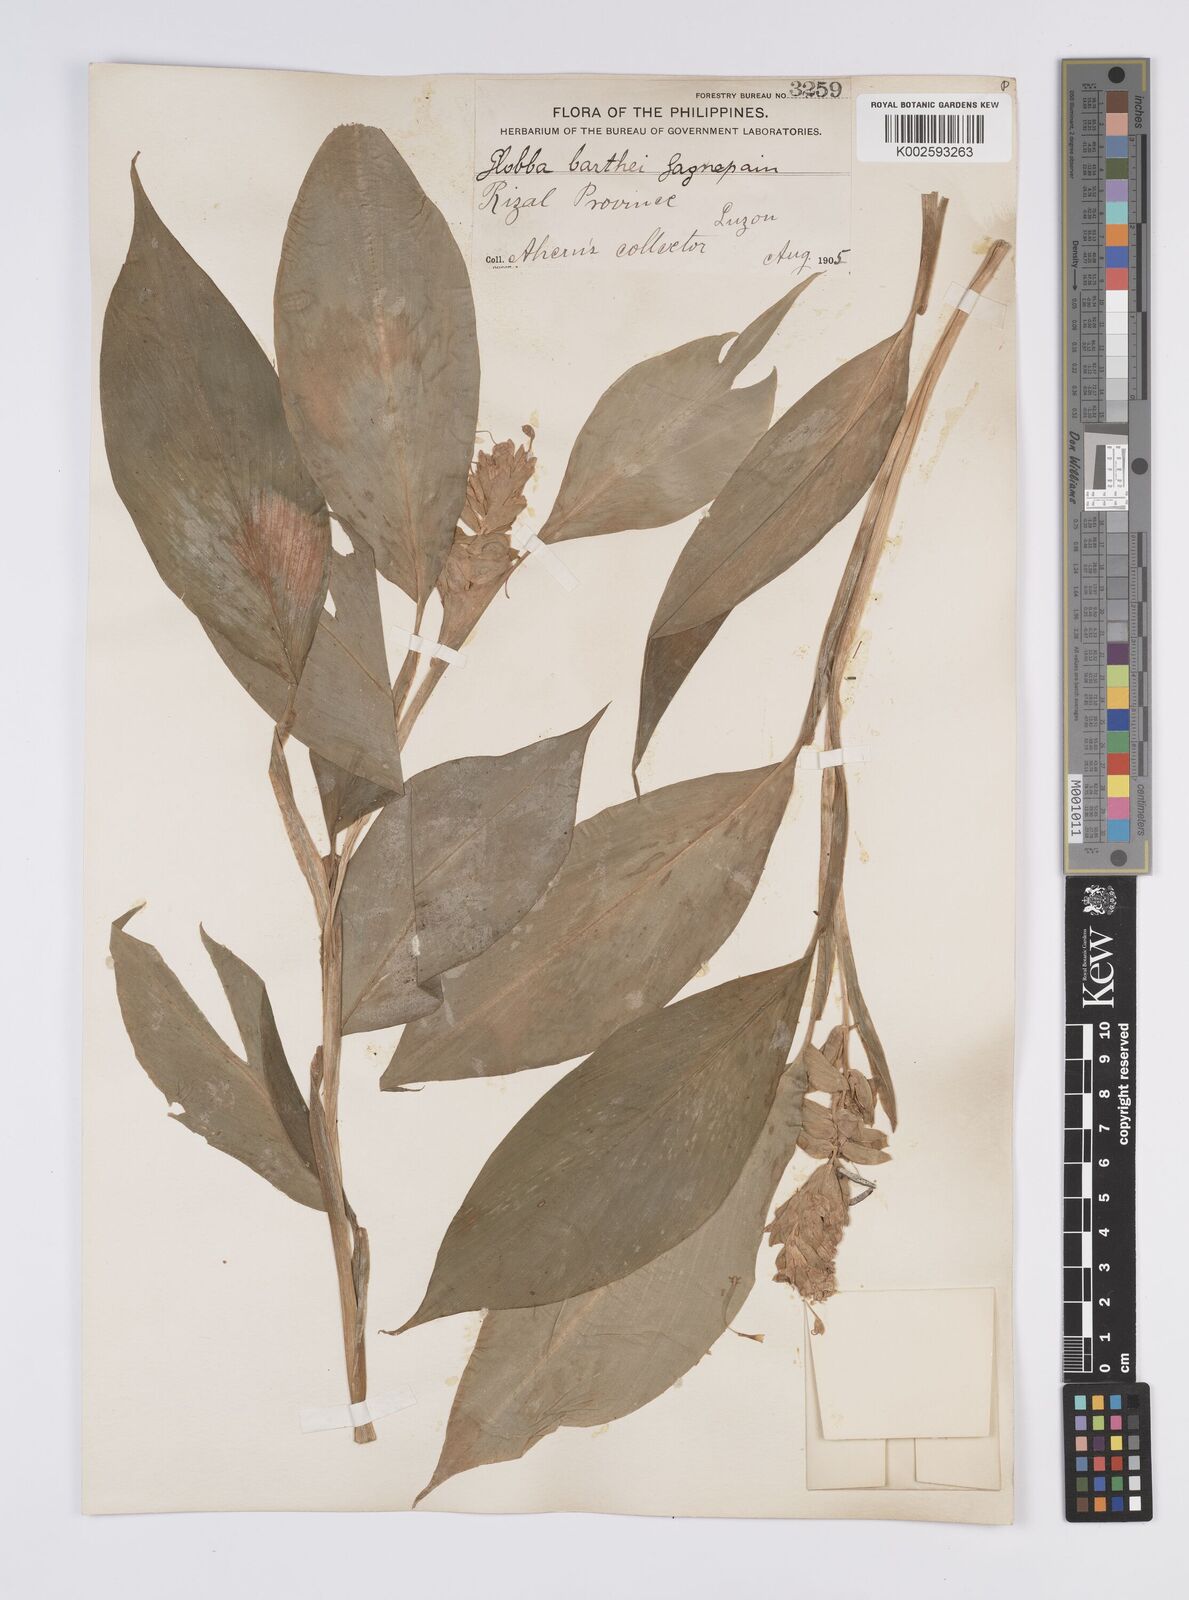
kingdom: Plantae
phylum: Tracheophyta
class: Liliopsida
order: Zingiberales
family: Zingiberaceae
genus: Globba
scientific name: Globba marantina
